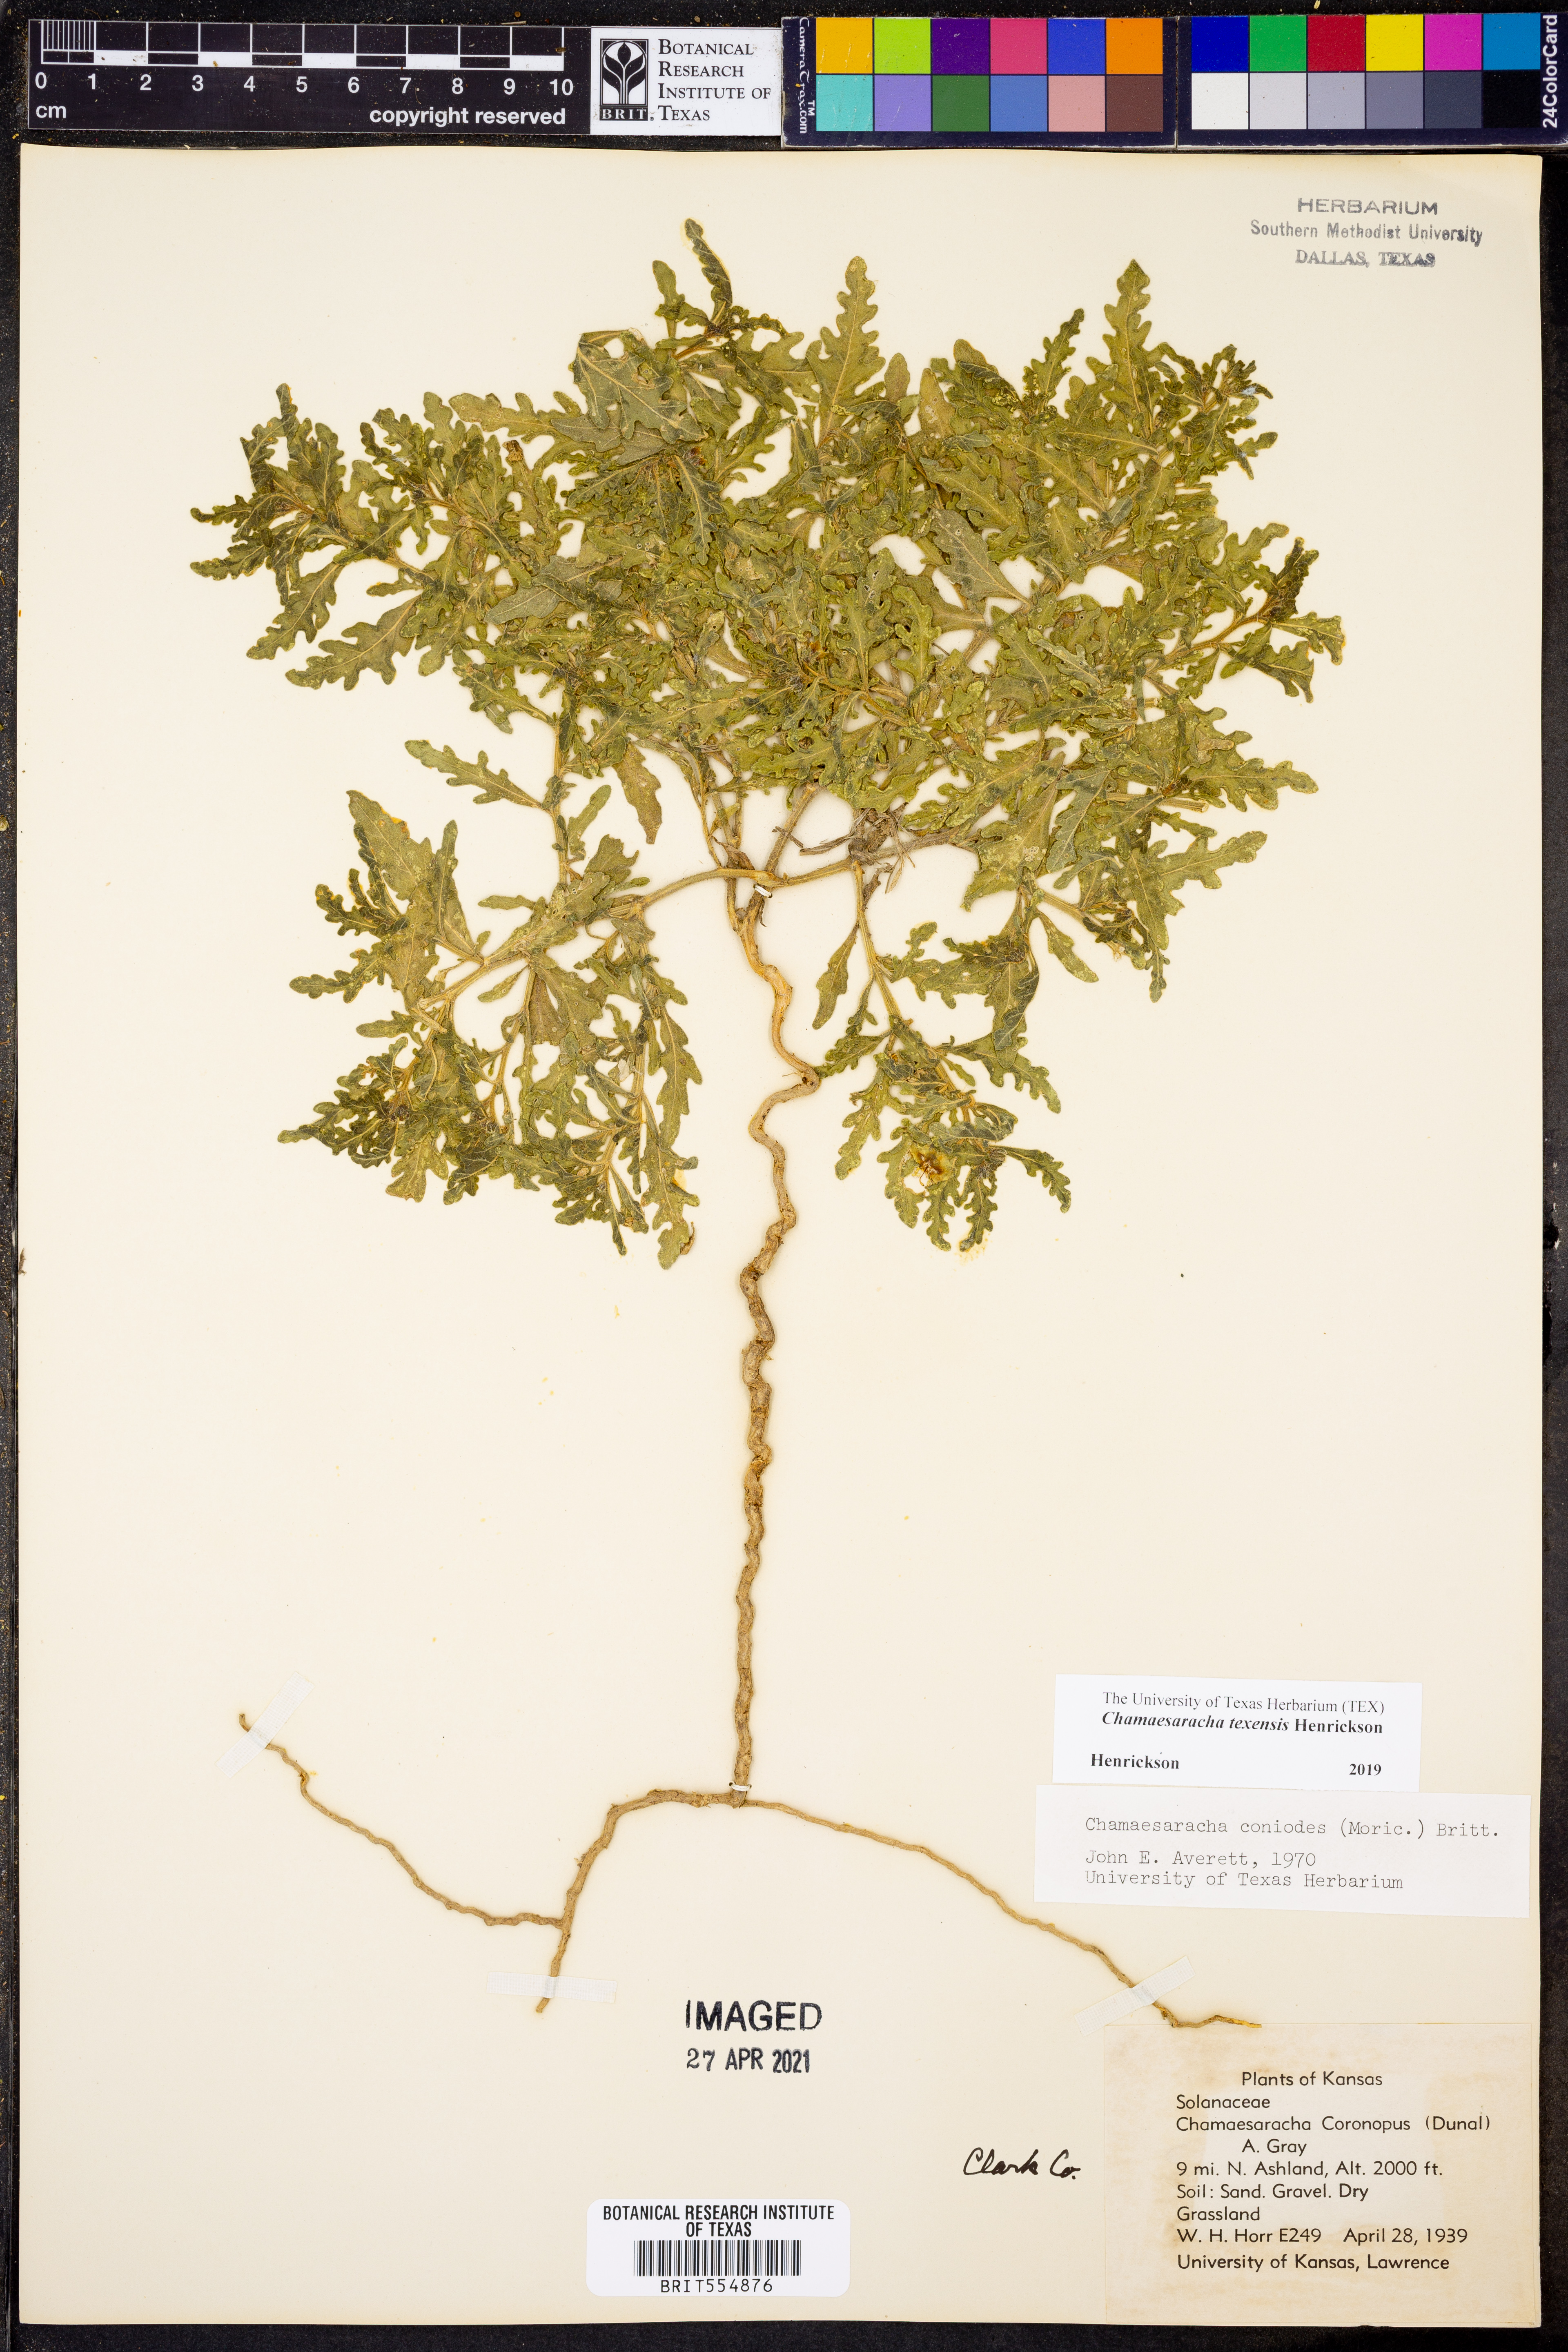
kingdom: Plantae
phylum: Tracheophyta
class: Magnoliopsida
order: Solanales
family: Solanaceae
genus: Chamaesaracha
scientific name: Chamaesaracha texensis
